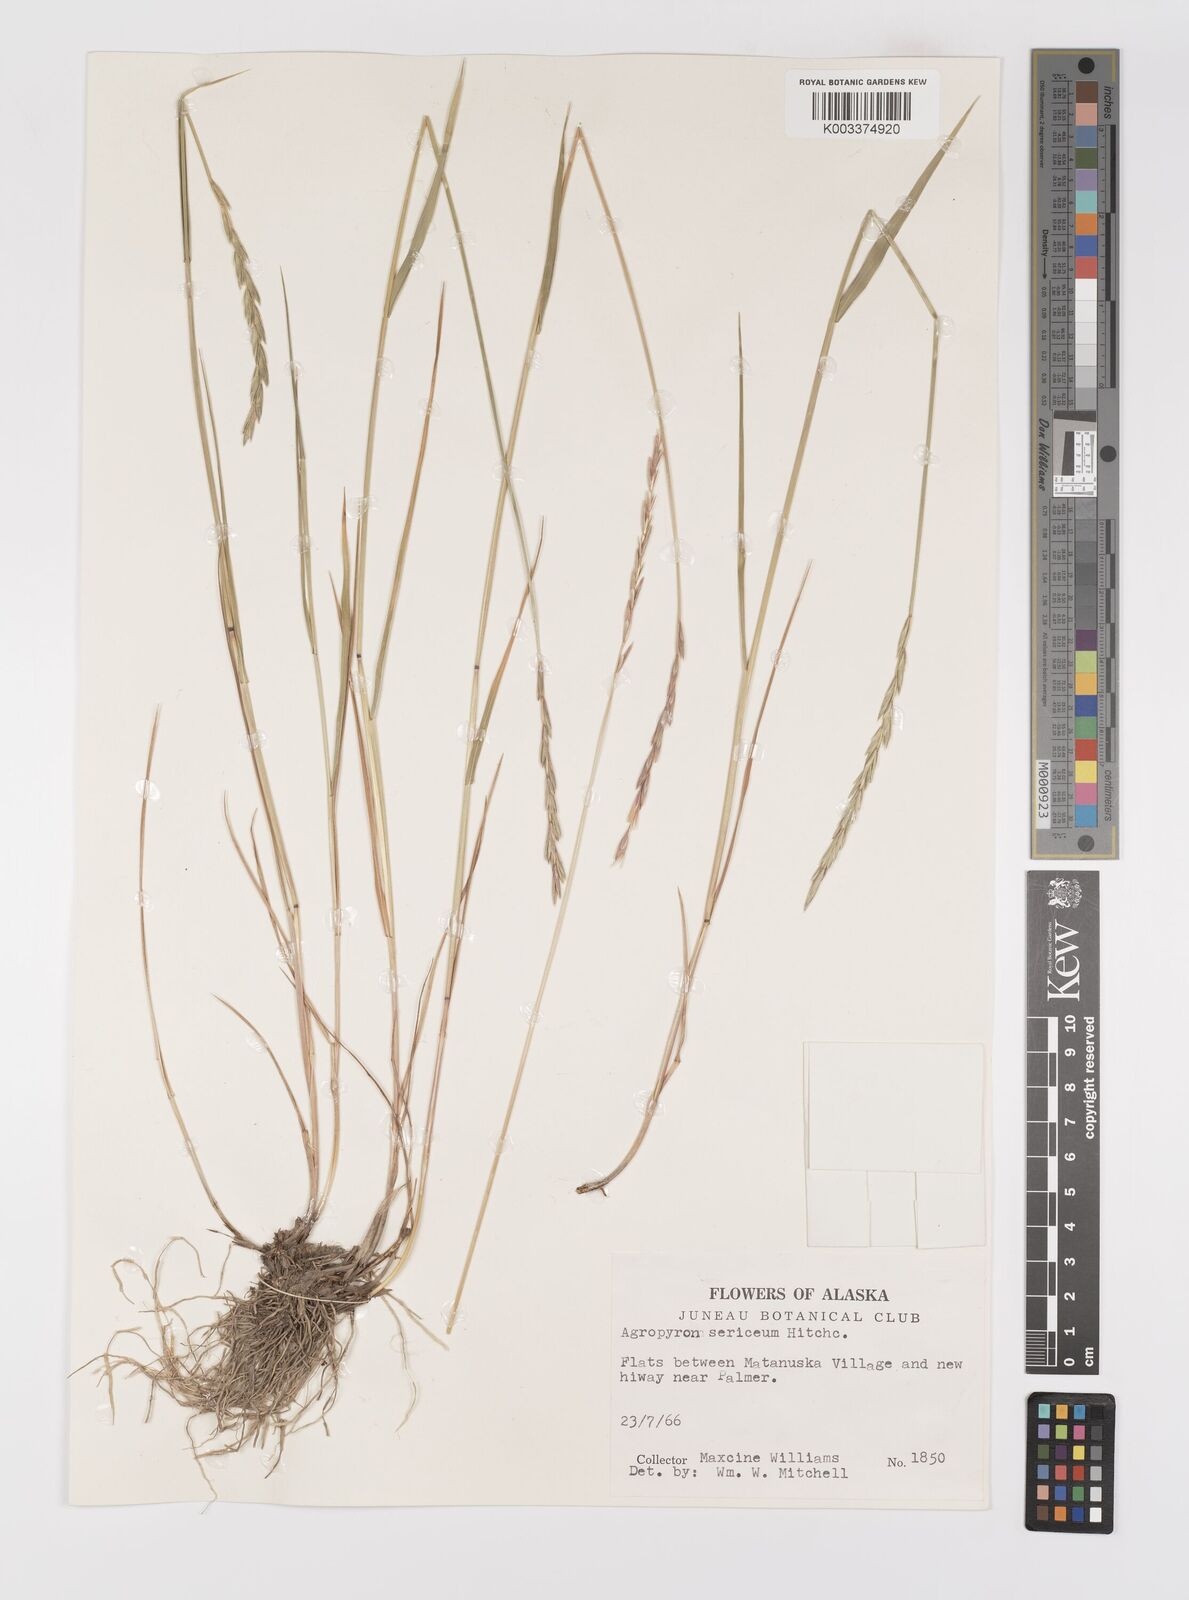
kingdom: Plantae
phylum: Tracheophyta
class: Liliopsida
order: Poales
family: Poaceae
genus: Elymus
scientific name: Elymus macrourus
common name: Northern wheatgrass
